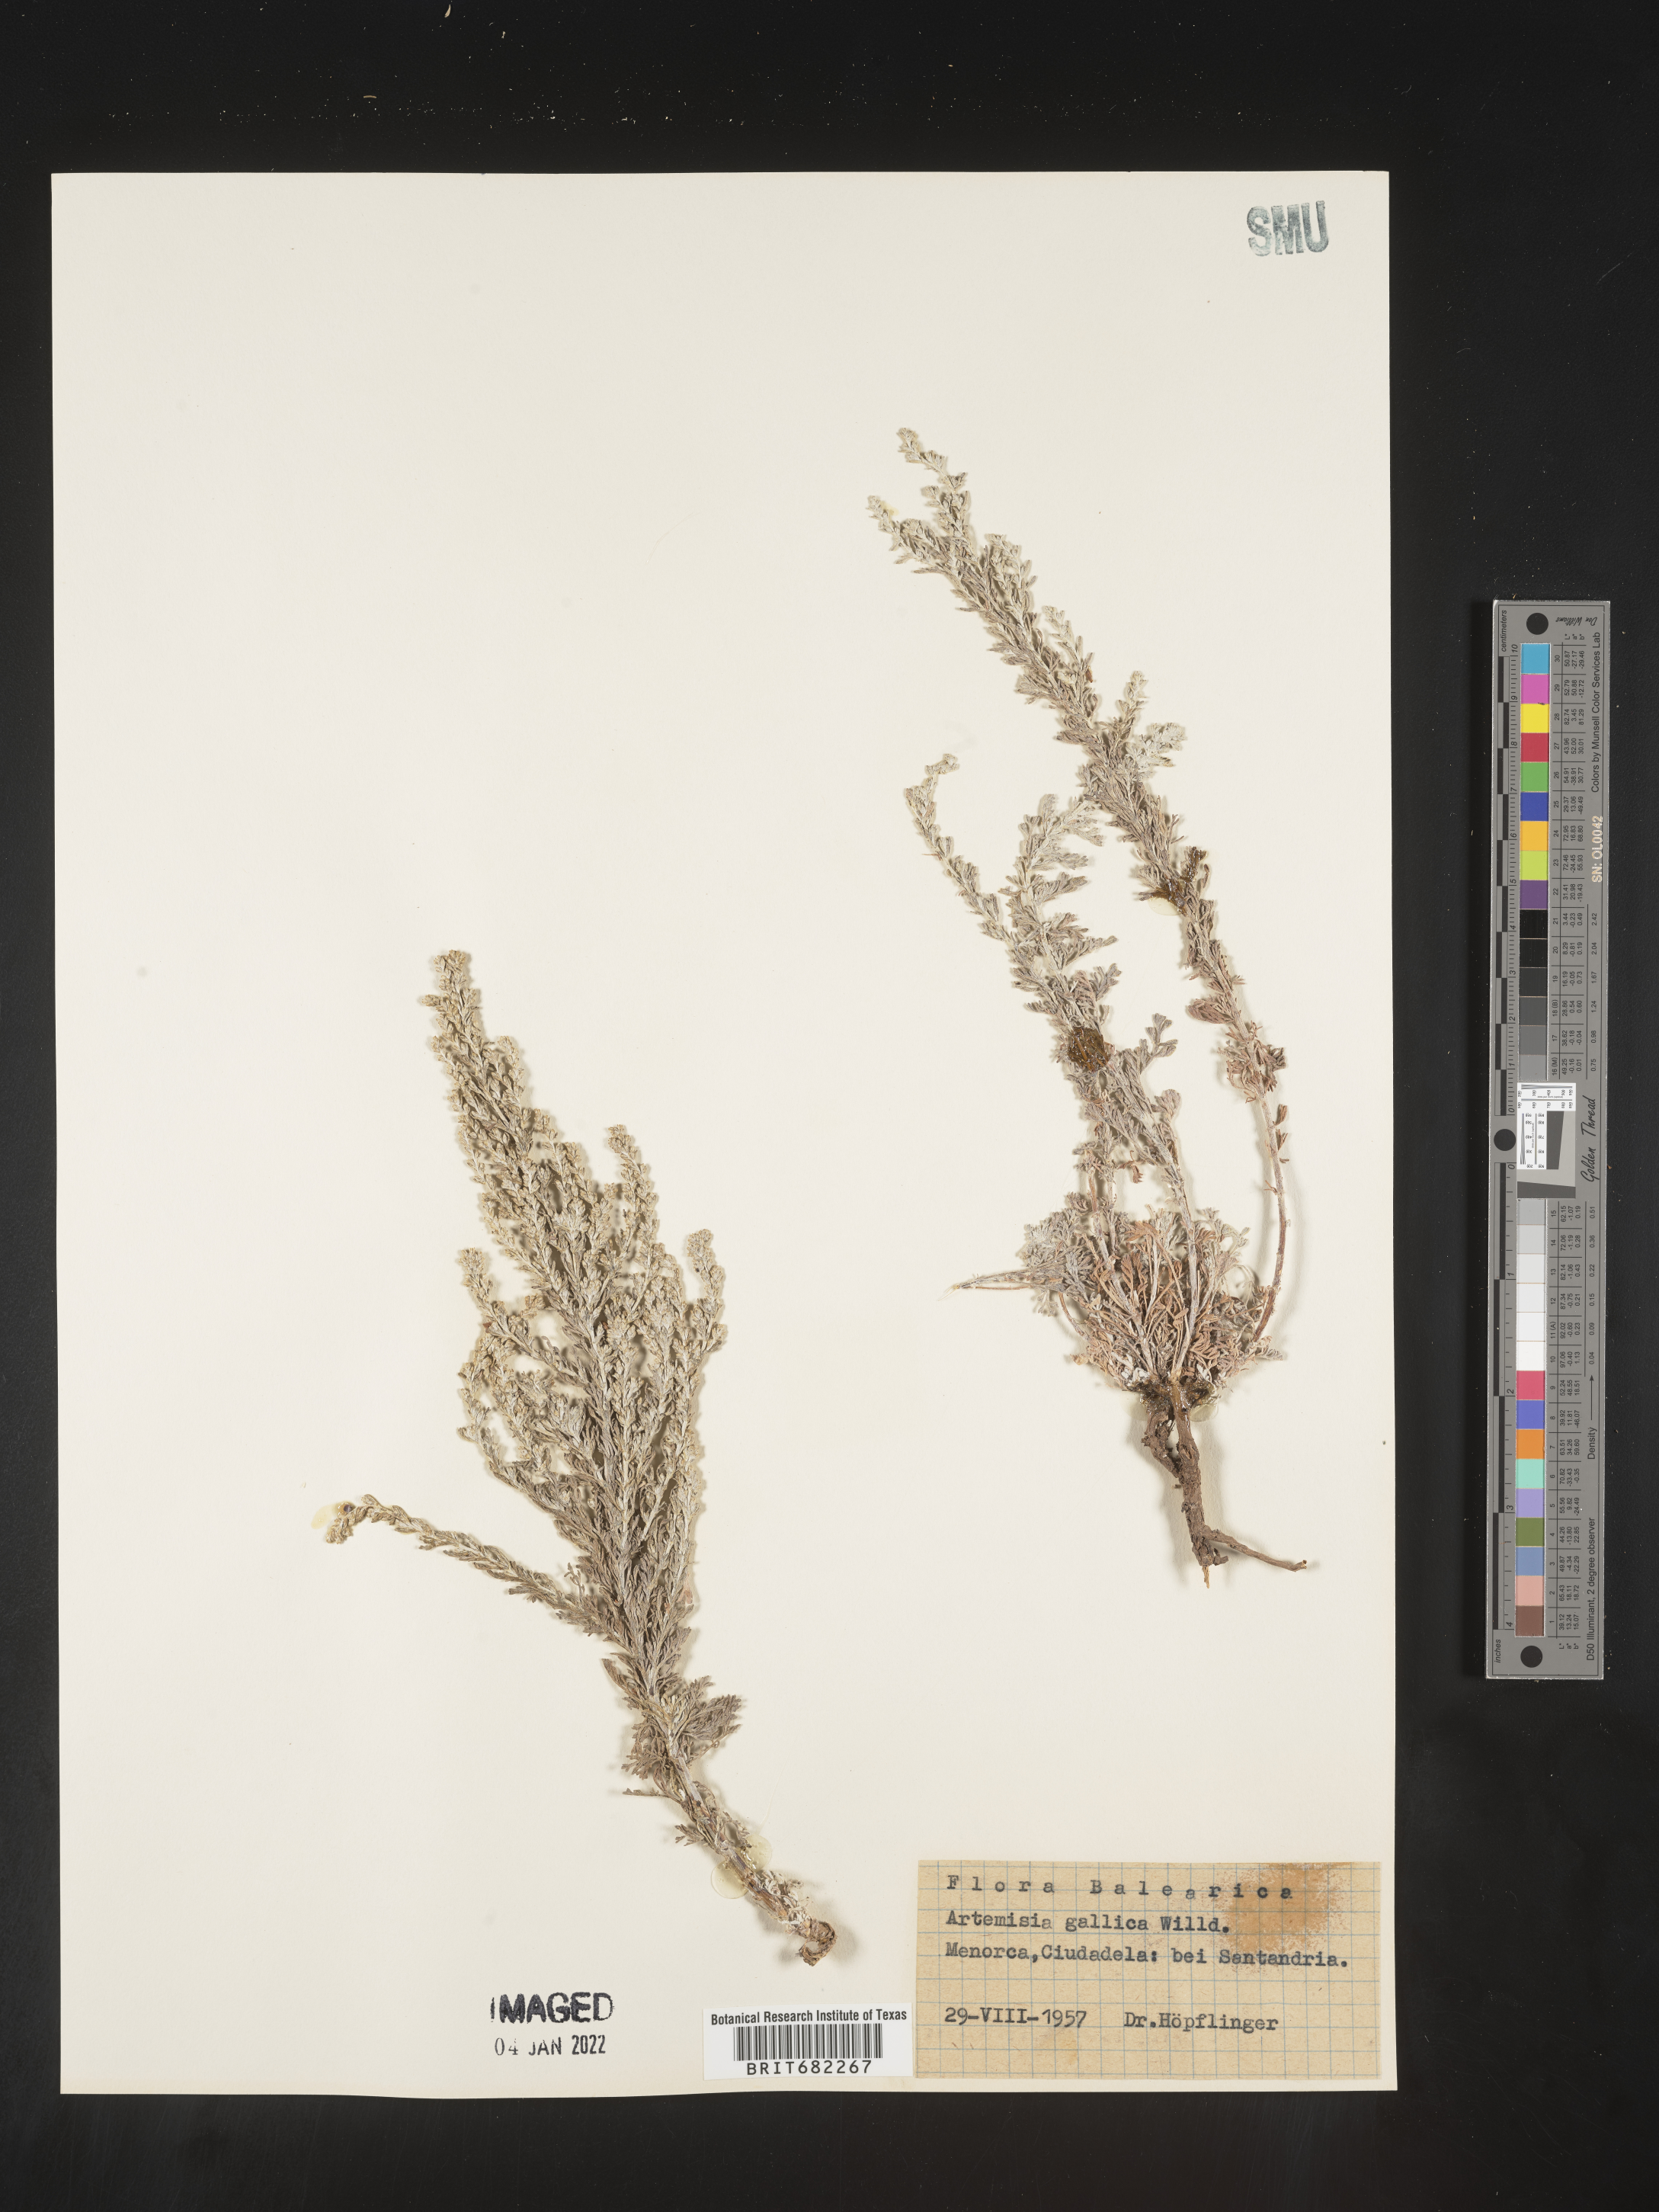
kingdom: Plantae
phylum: Tracheophyta
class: Magnoliopsida
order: Asterales
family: Asteraceae
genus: Artemisia
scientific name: Artemisia
